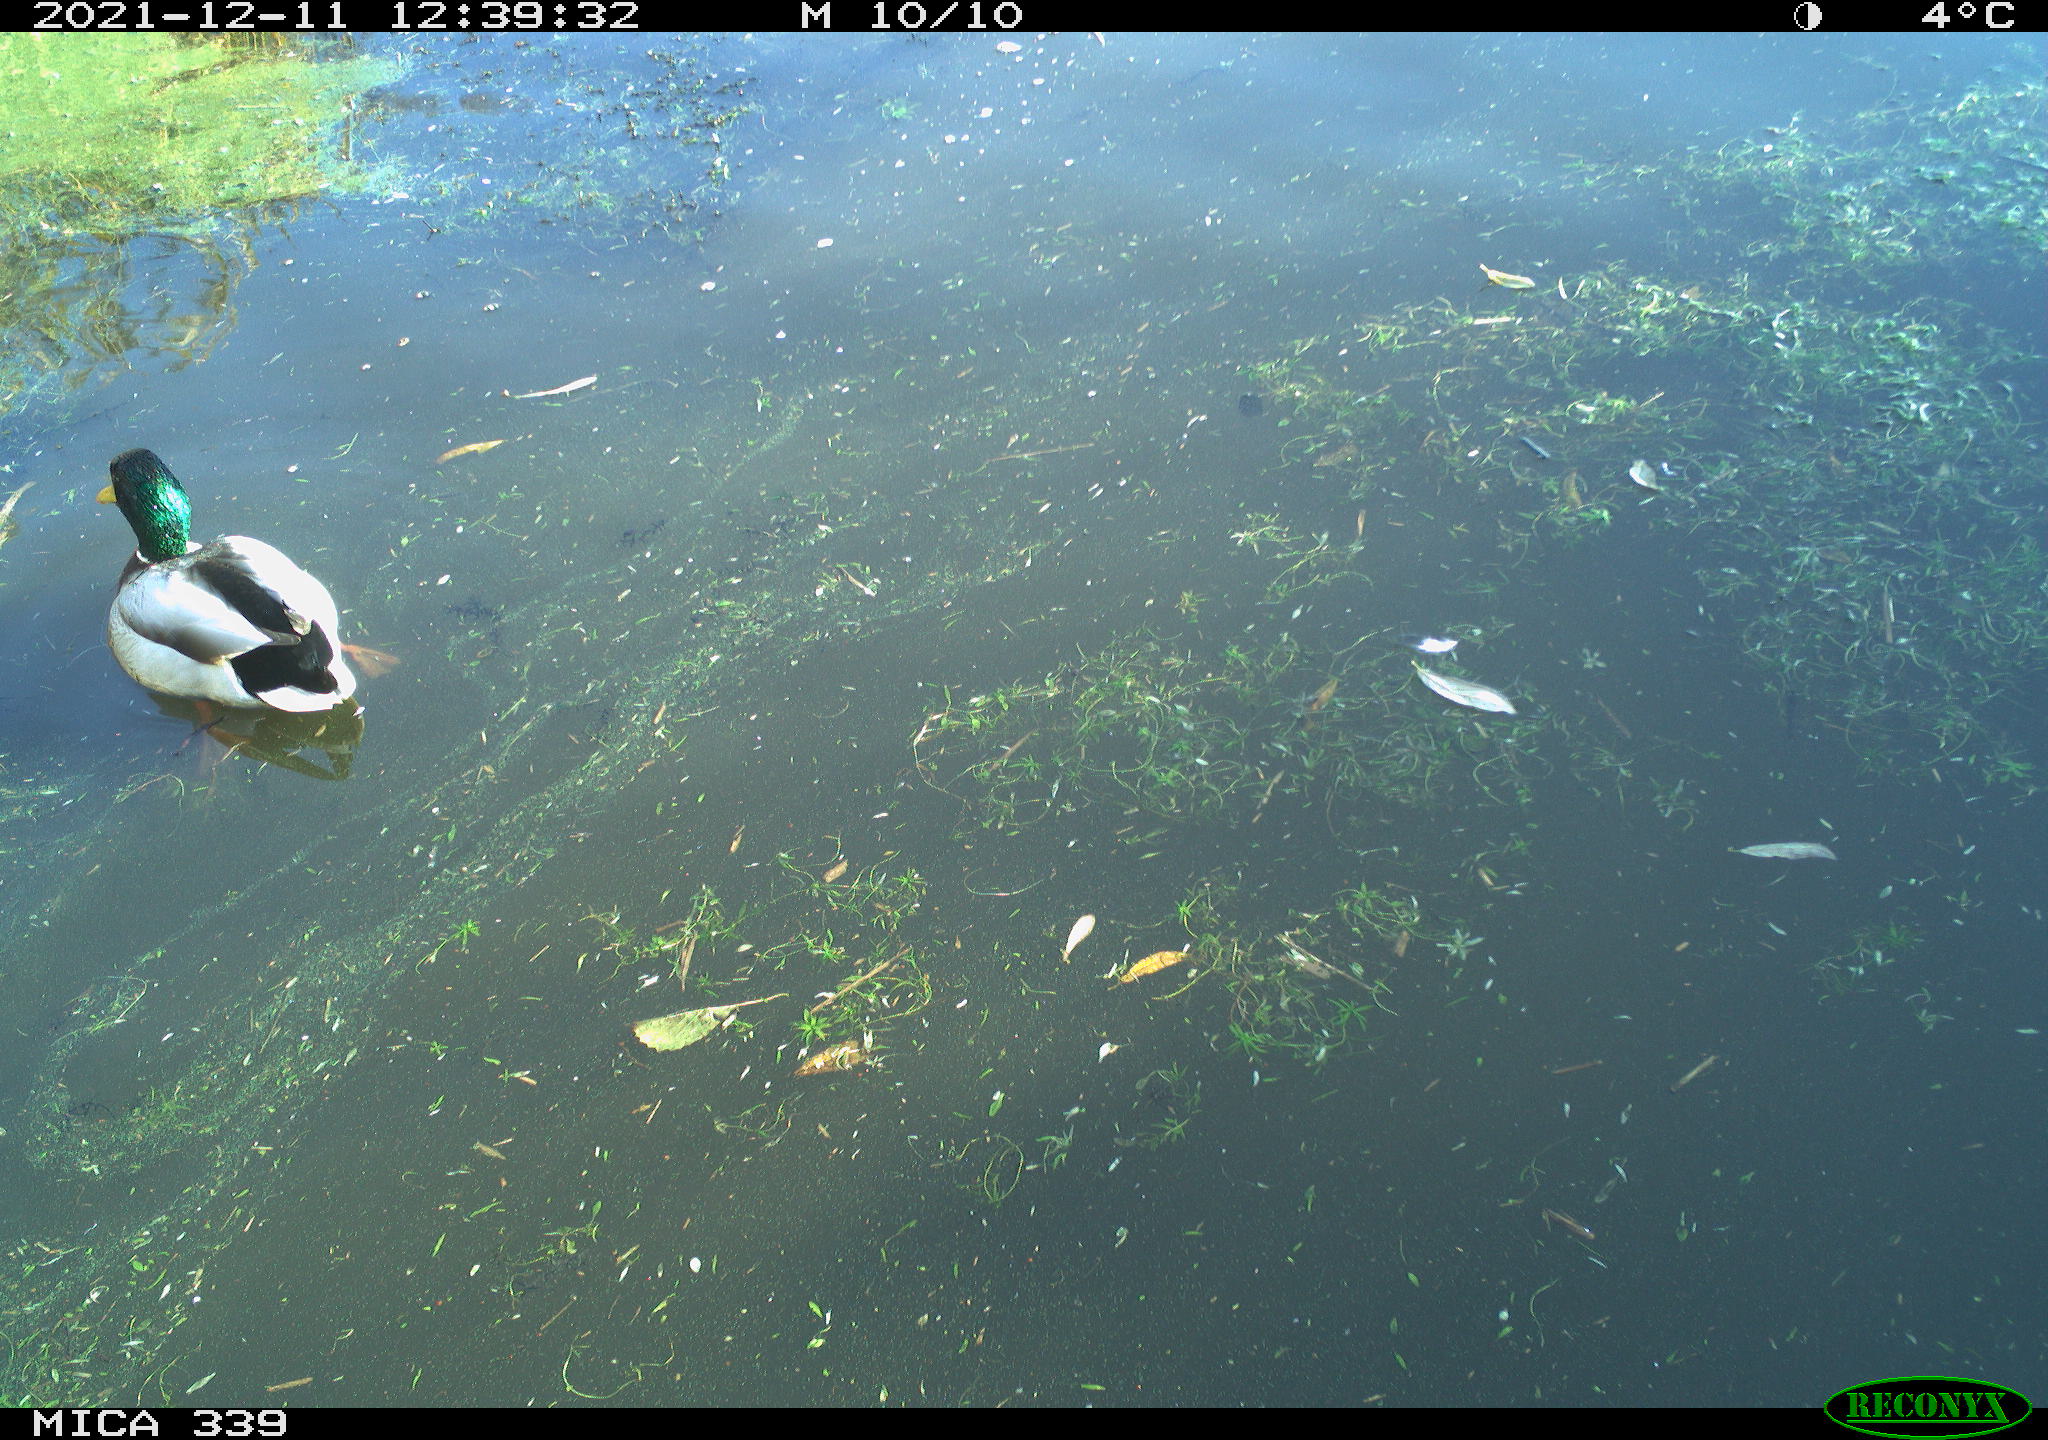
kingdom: Animalia
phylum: Chordata
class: Aves
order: Anseriformes
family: Anatidae
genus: Anas
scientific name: Anas platyrhynchos
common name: Mallard
